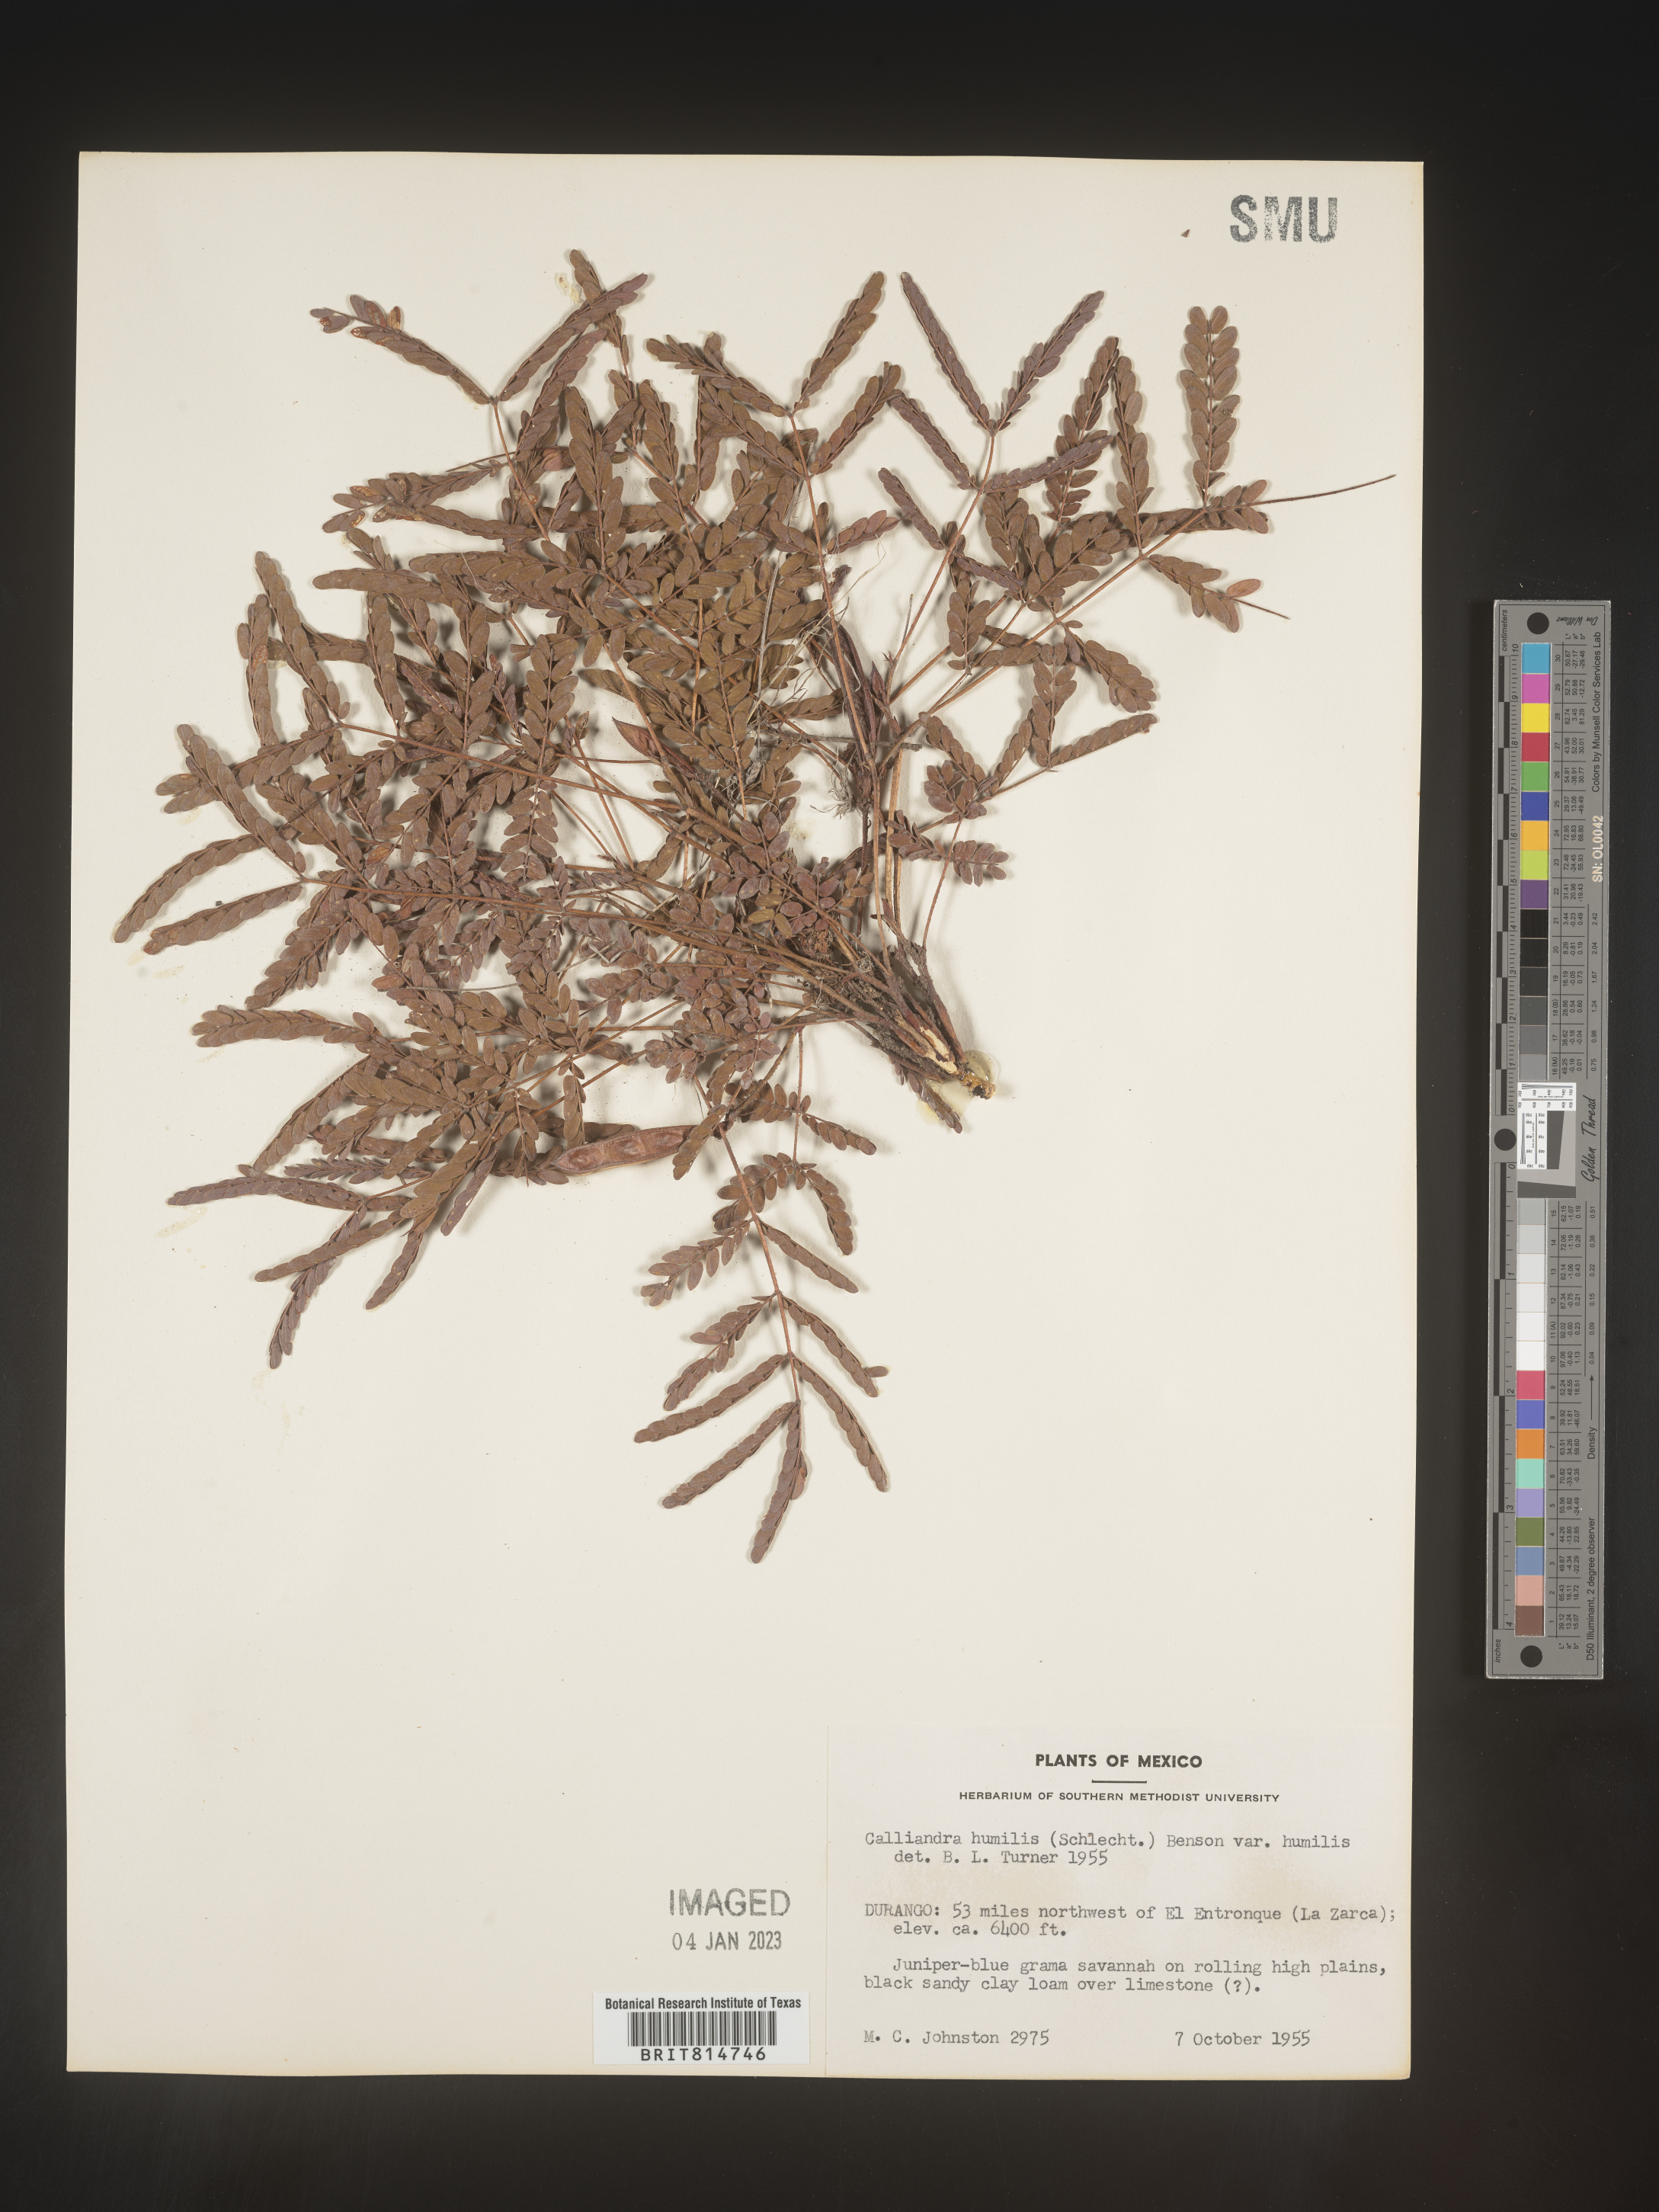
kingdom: Plantae
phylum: Tracheophyta
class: Magnoliopsida
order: Fabales
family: Fabaceae
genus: Calliandra
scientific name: Calliandra
